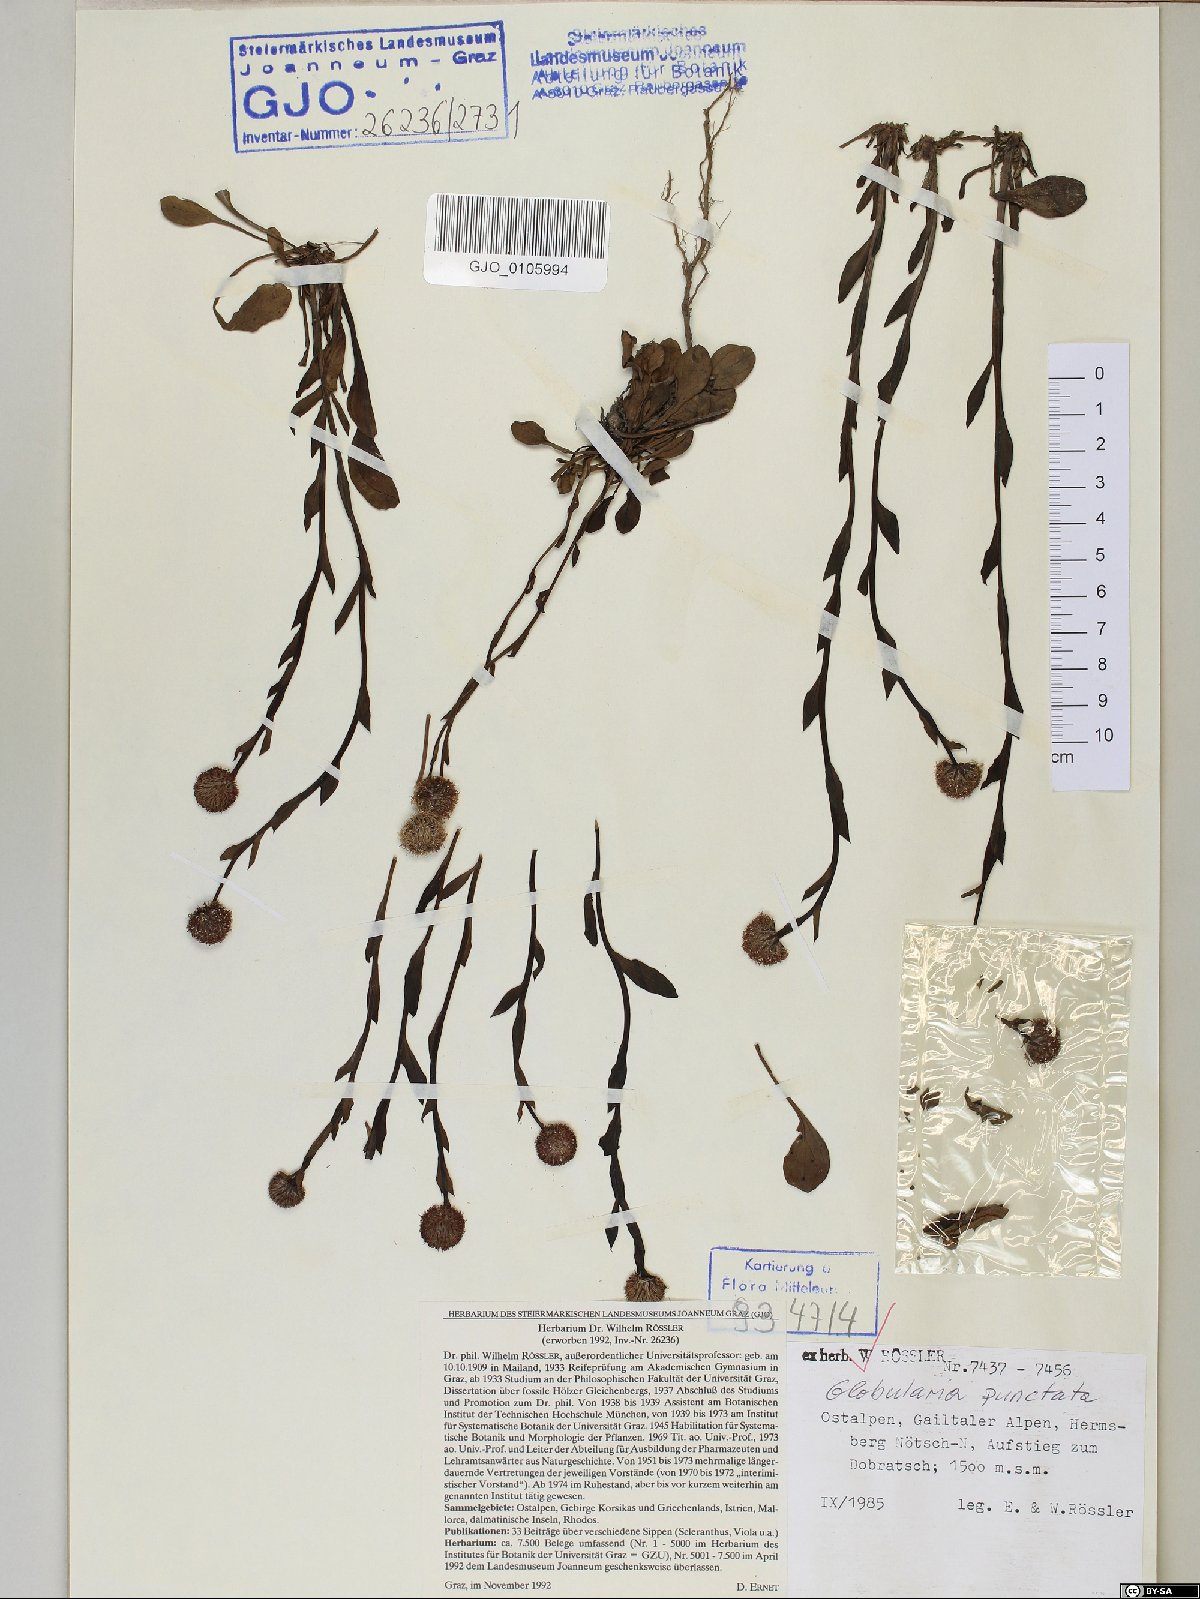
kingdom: Plantae
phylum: Tracheophyta
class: Magnoliopsida
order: Lamiales
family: Plantaginaceae
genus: Globularia
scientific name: Globularia bisnagarica
